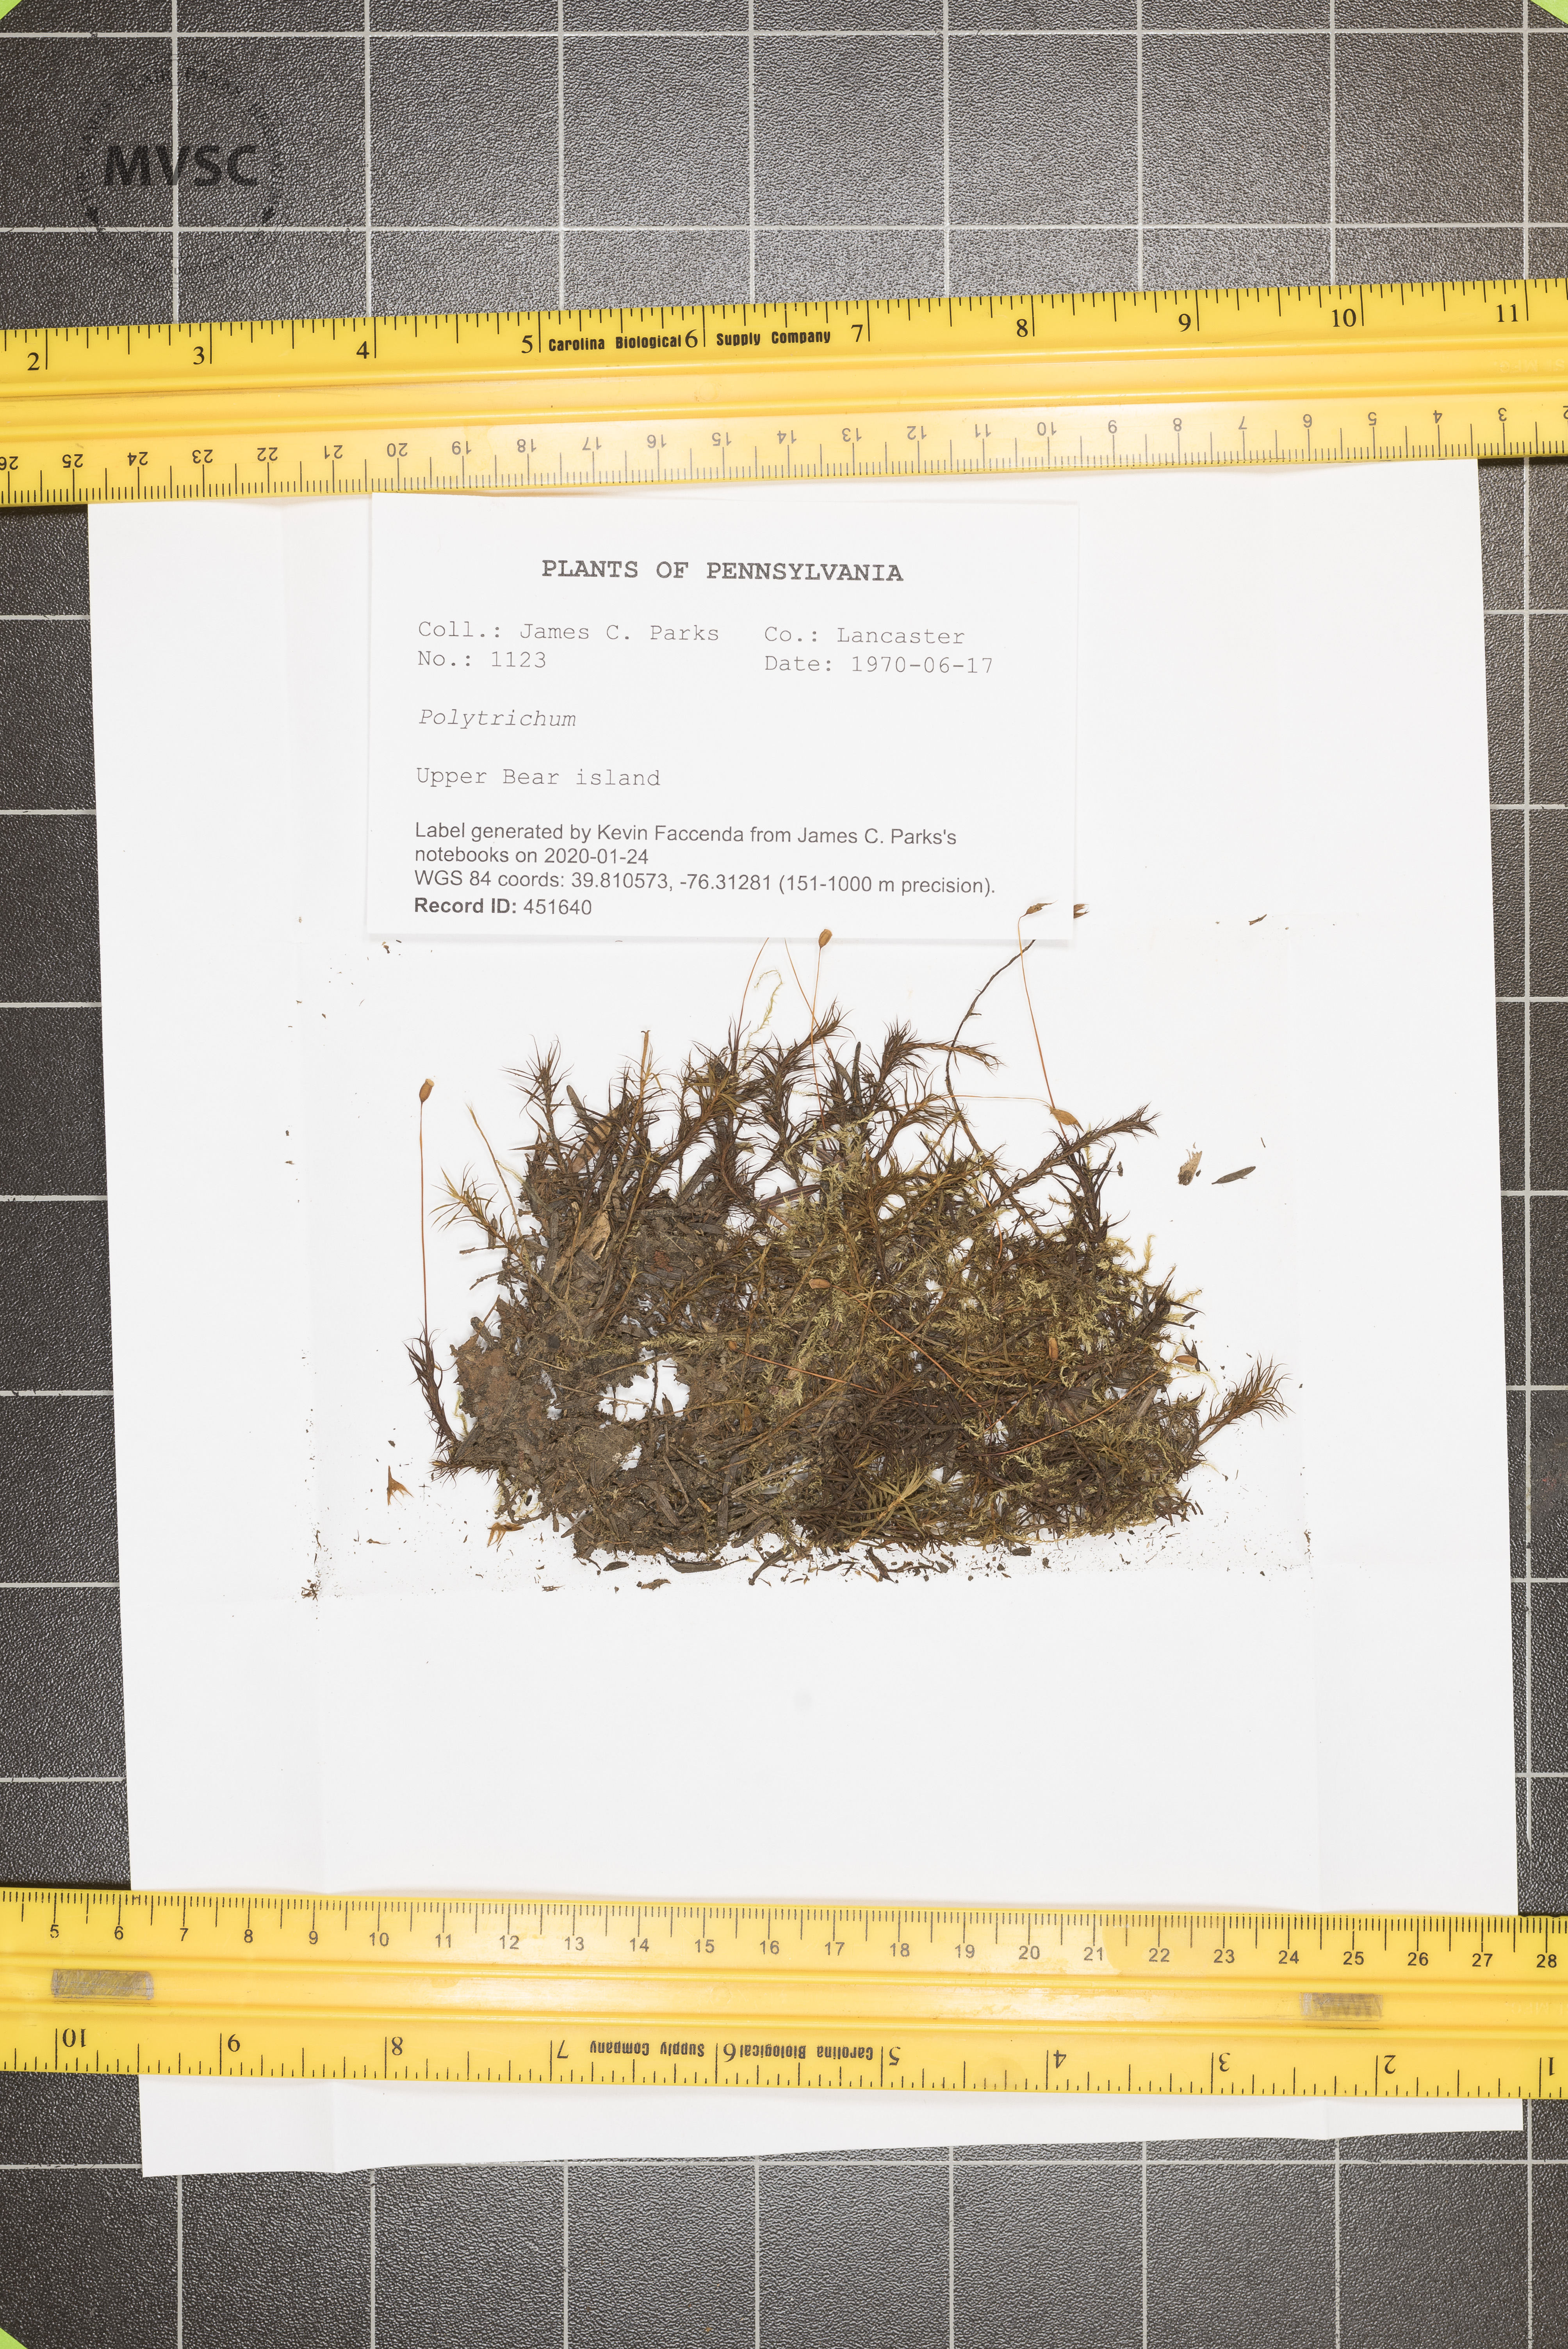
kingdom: Plantae
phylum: Bryophyta
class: Polytrichopsida
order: Polytrichales
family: Polytrichaceae
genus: Polytrichum
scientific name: Polytrichum
